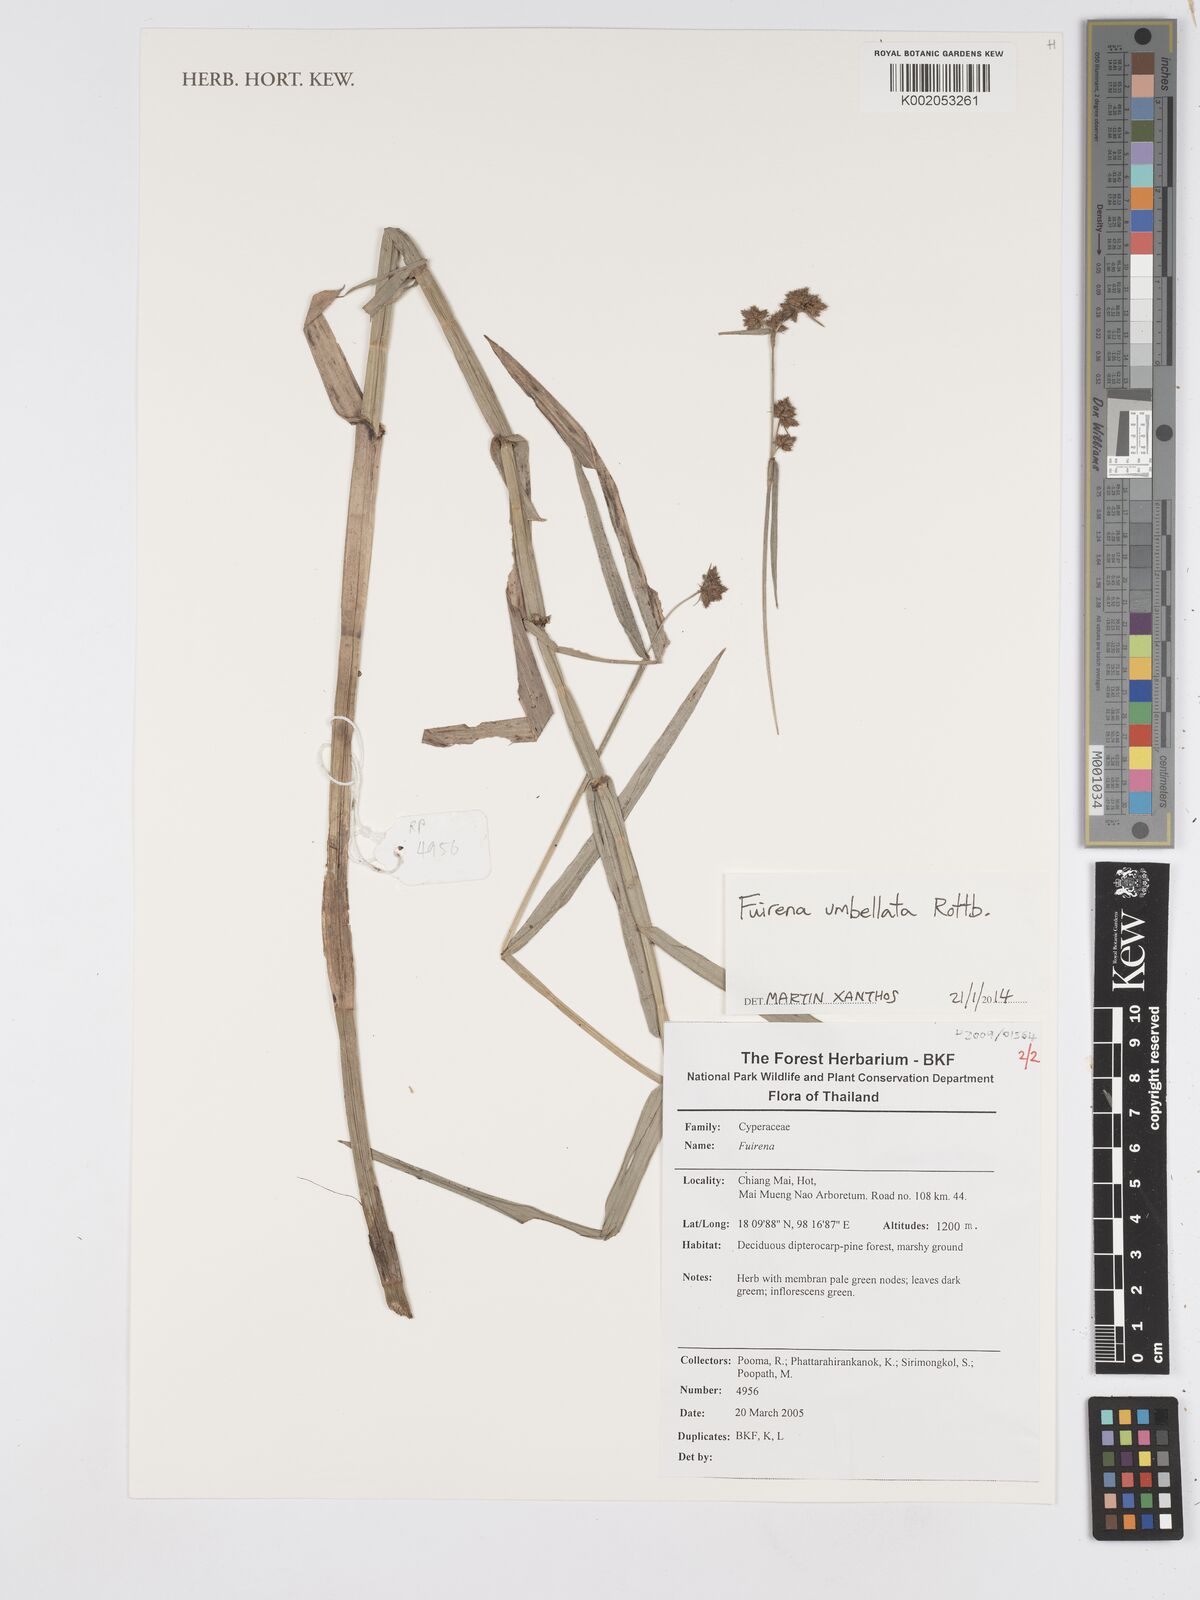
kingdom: Plantae
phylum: Tracheophyta
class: Liliopsida
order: Poales
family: Cyperaceae
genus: Fuirena
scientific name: Fuirena umbellata
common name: Yefen
